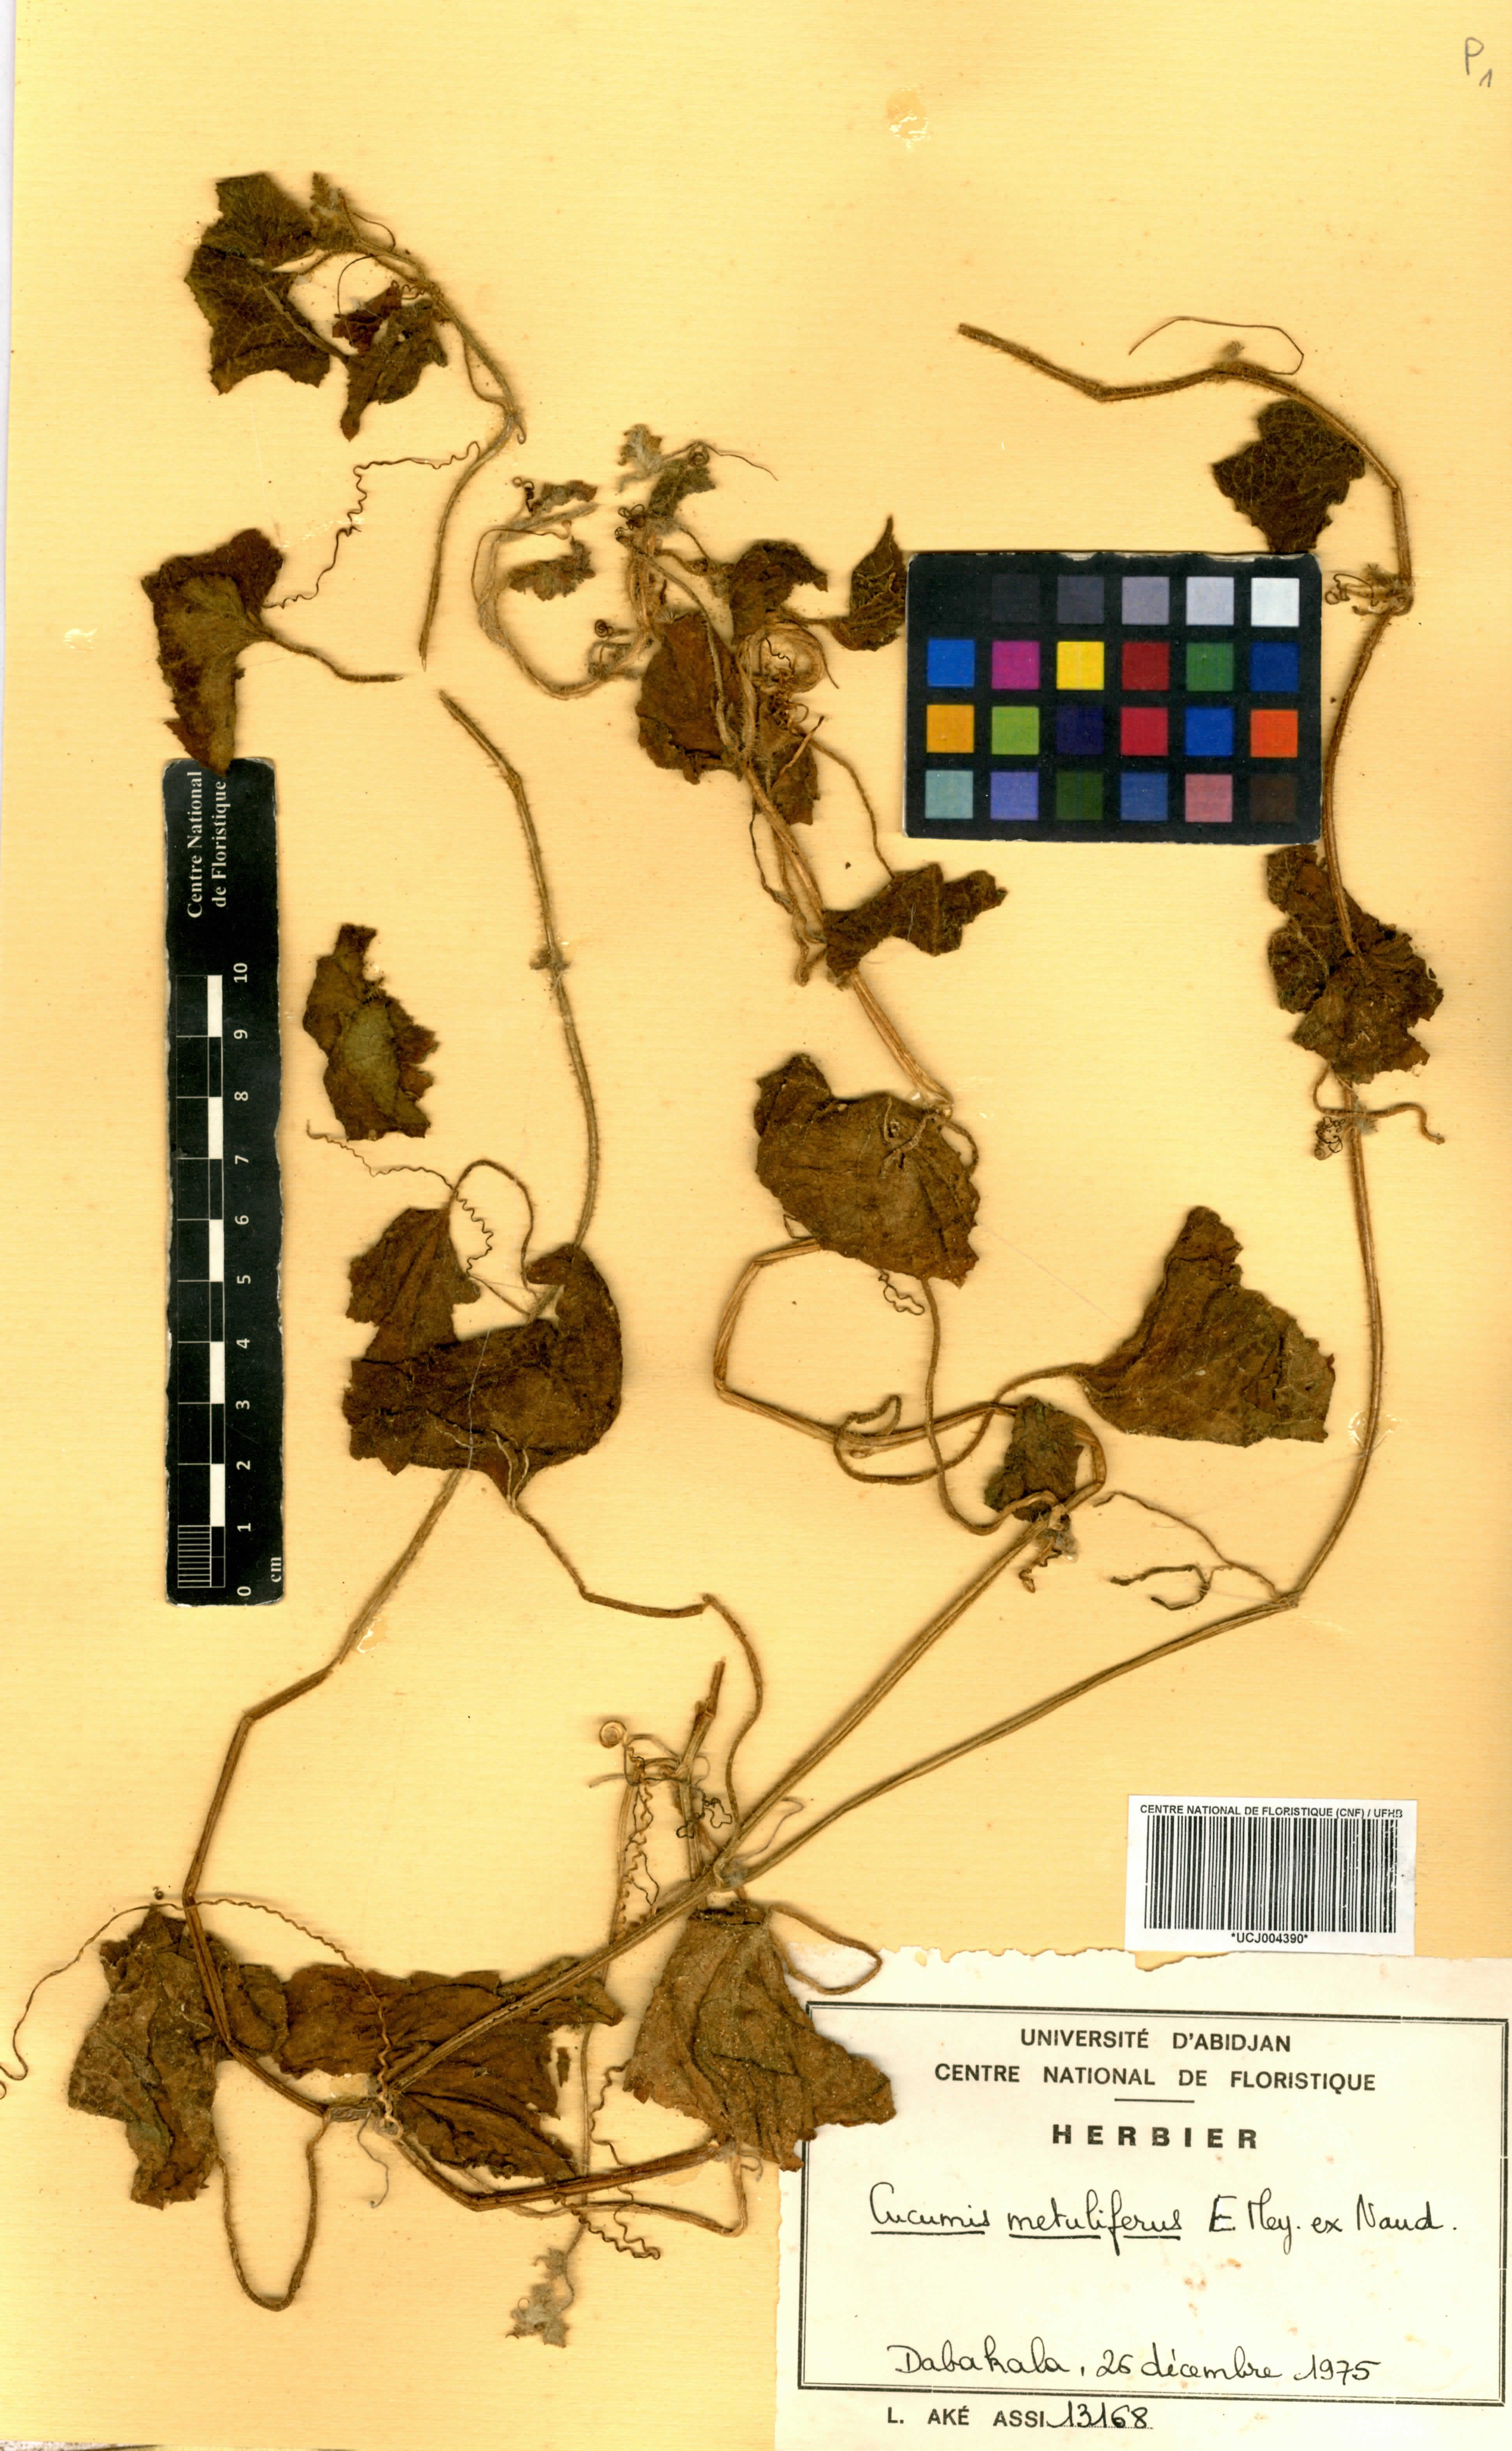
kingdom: Plantae
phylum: Tracheophyta
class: Magnoliopsida
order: Cucurbitales
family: Cucurbitaceae
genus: Cucumis
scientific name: Cucumis metuliferus
